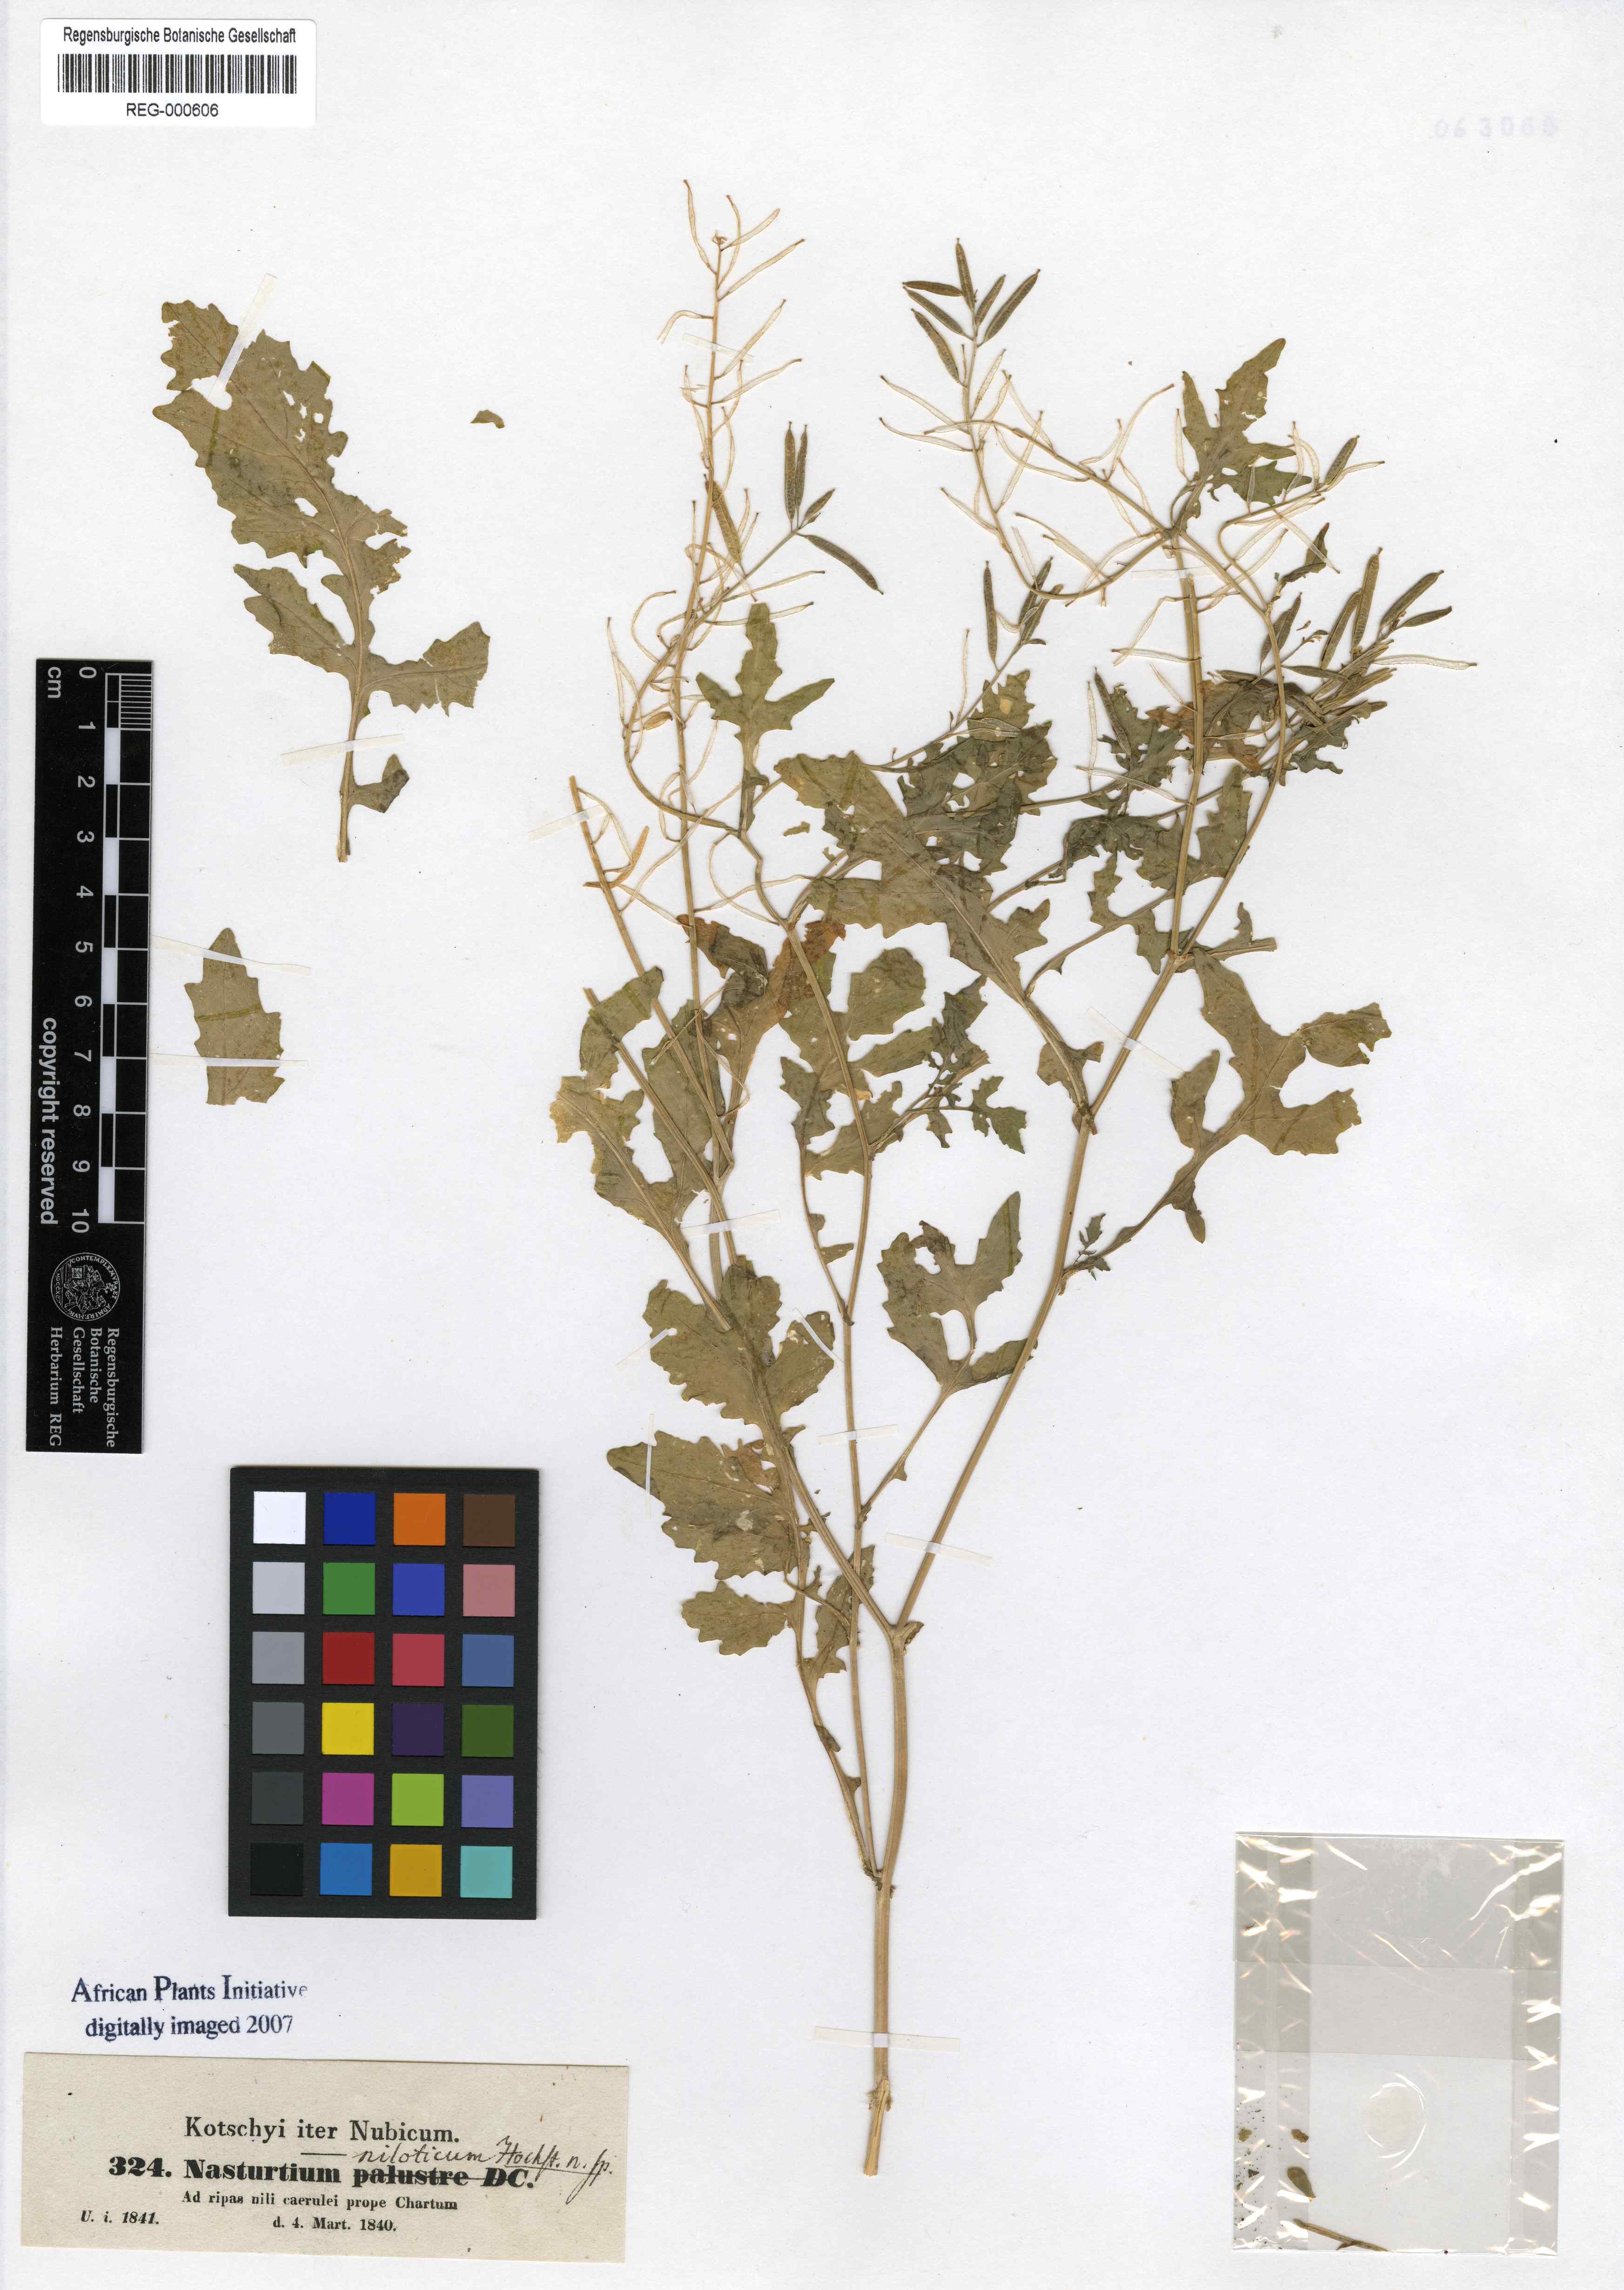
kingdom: Plantae
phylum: Tracheophyta
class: Magnoliopsida
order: Brassicales
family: Brassicaceae
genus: Rorippa
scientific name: Rorippa micrantha
